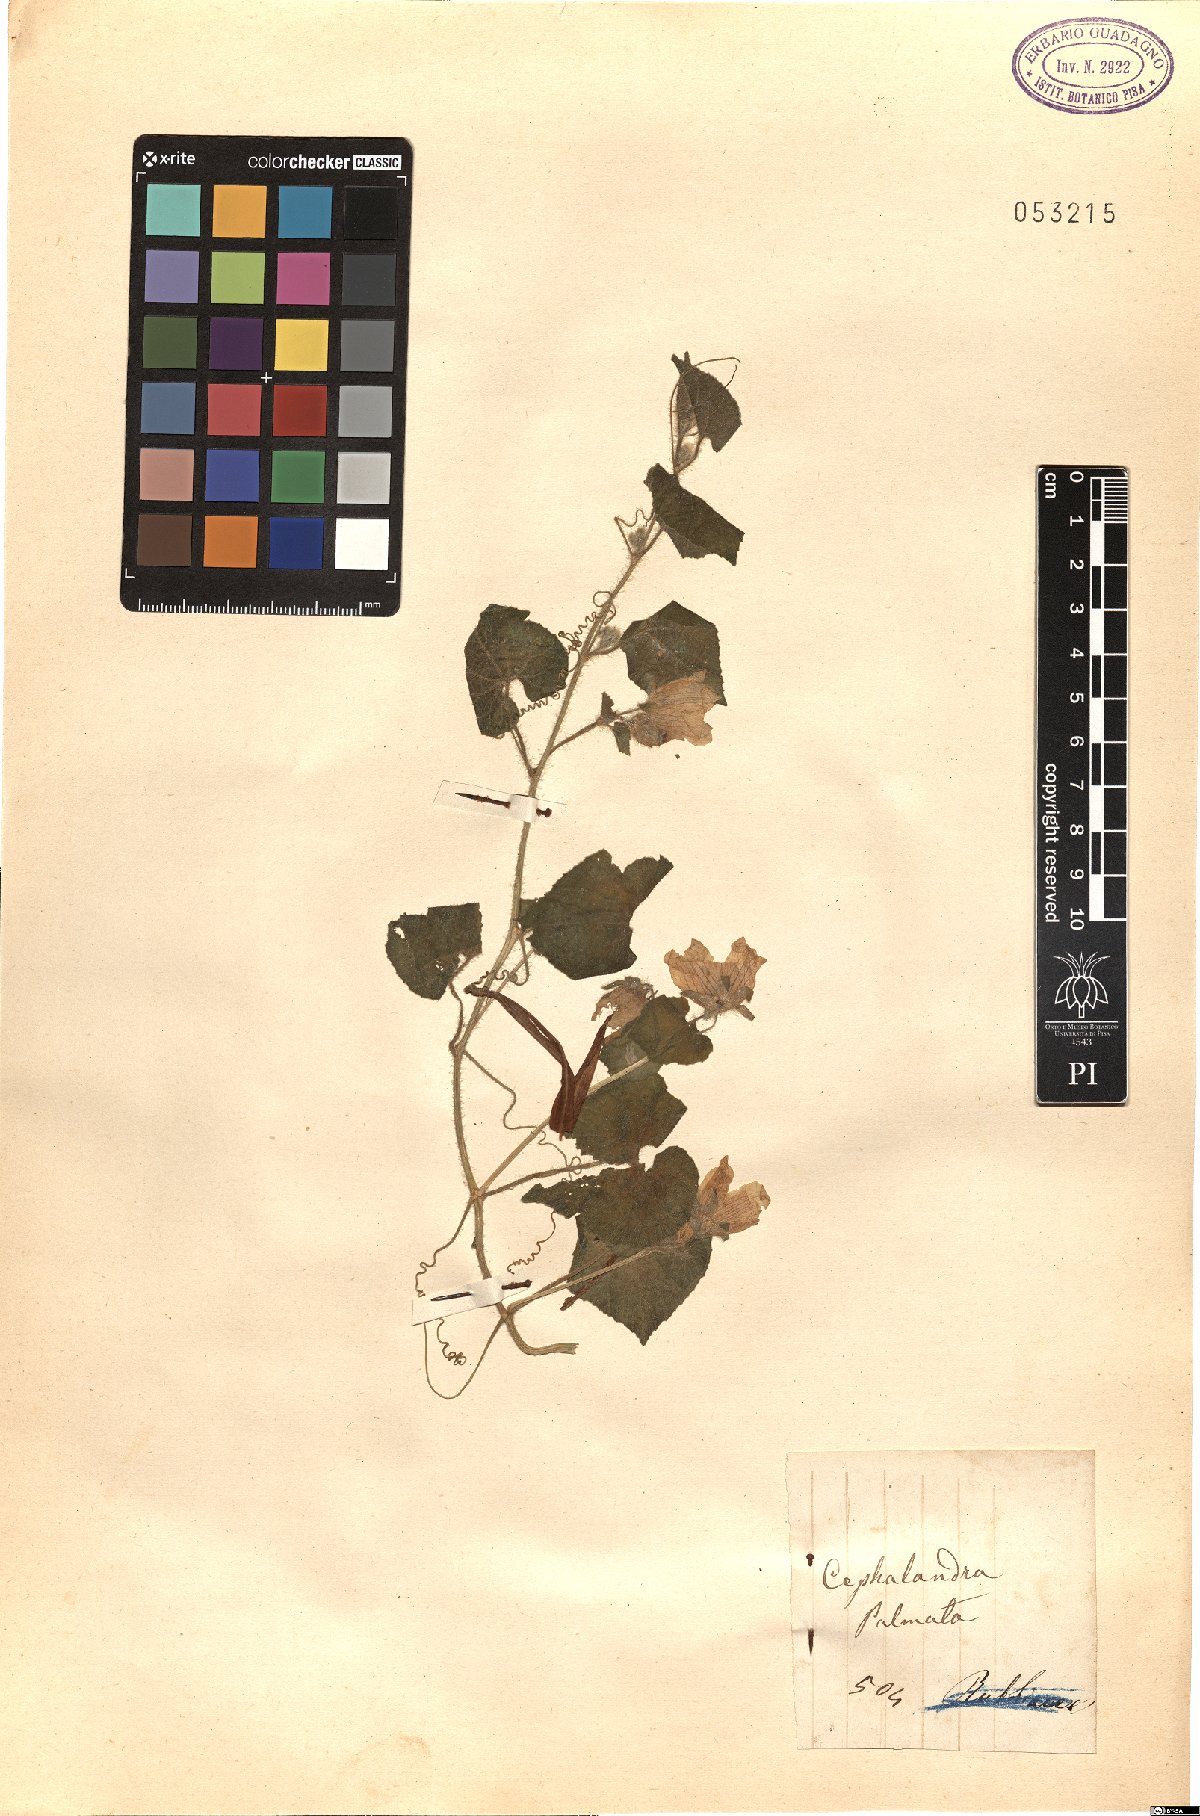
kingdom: Plantae
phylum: Tracheophyta
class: Magnoliopsida
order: Cucurbitales
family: Cucurbitaceae
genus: Coccinia
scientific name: Coccinia palmata
